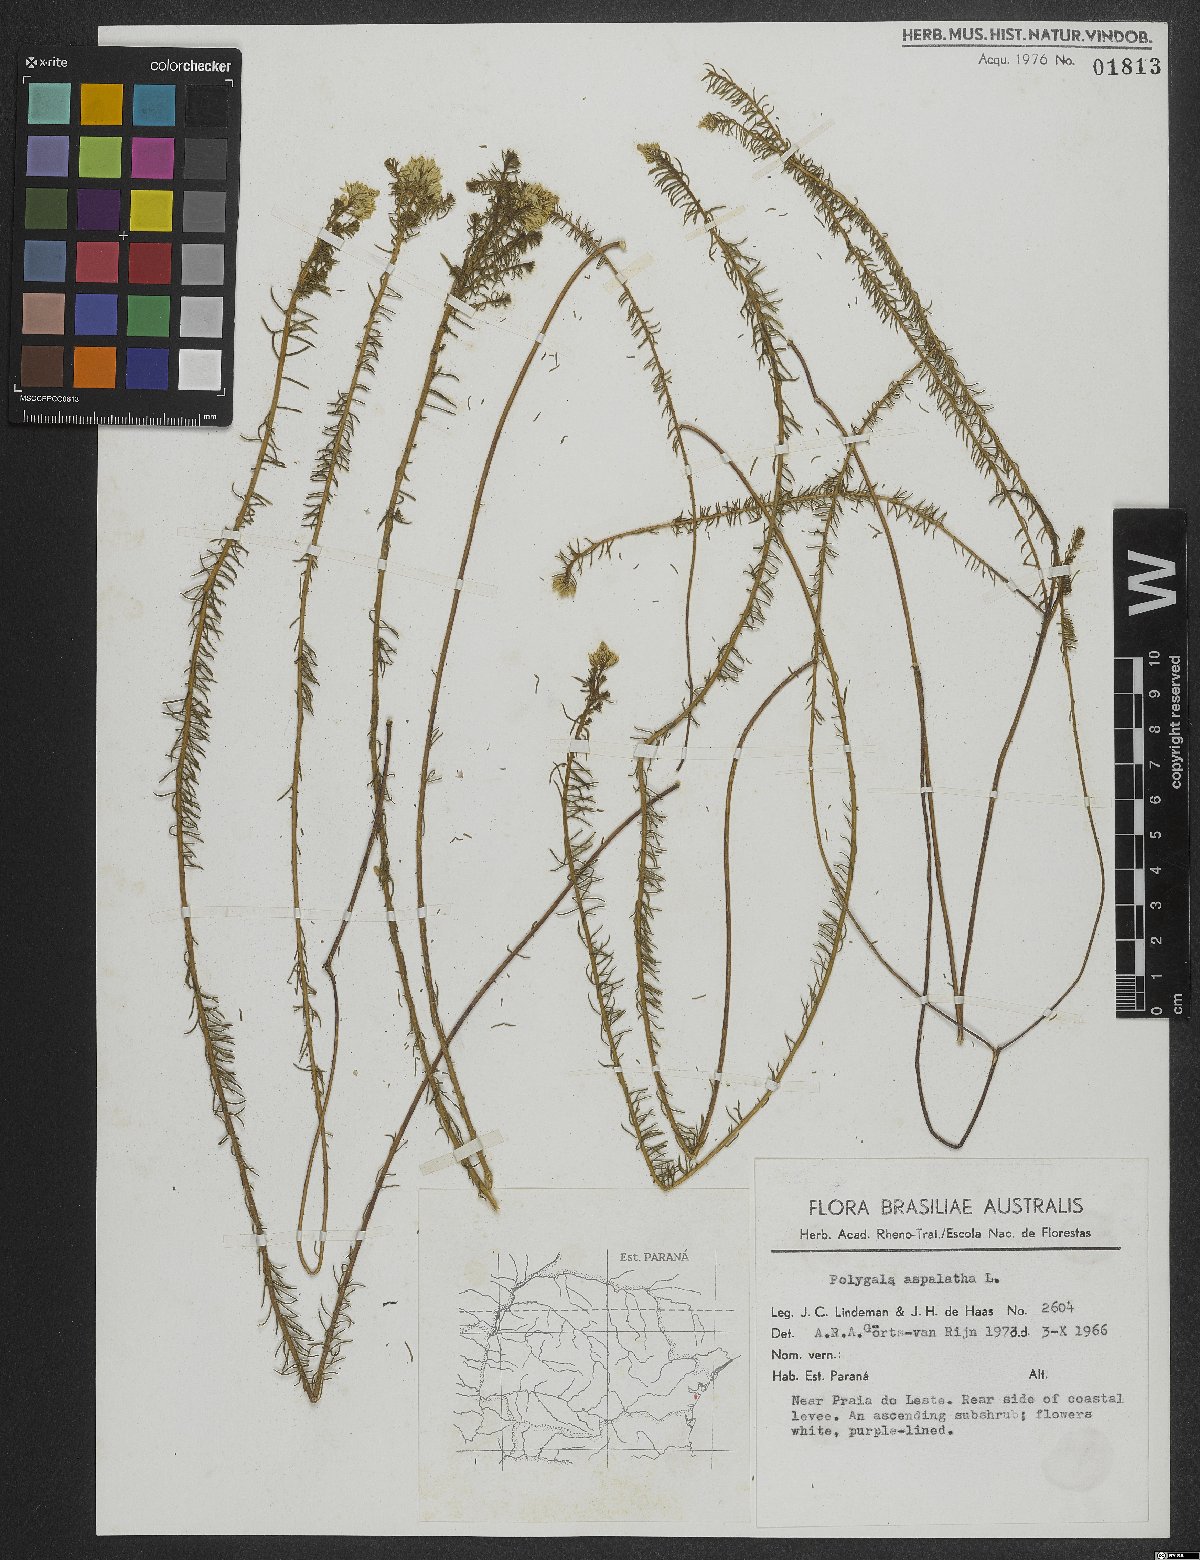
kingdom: Plantae
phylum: Tracheophyta
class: Magnoliopsida
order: Fabales
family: Polygalaceae
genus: Polygala
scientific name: Polygala aspalatha
